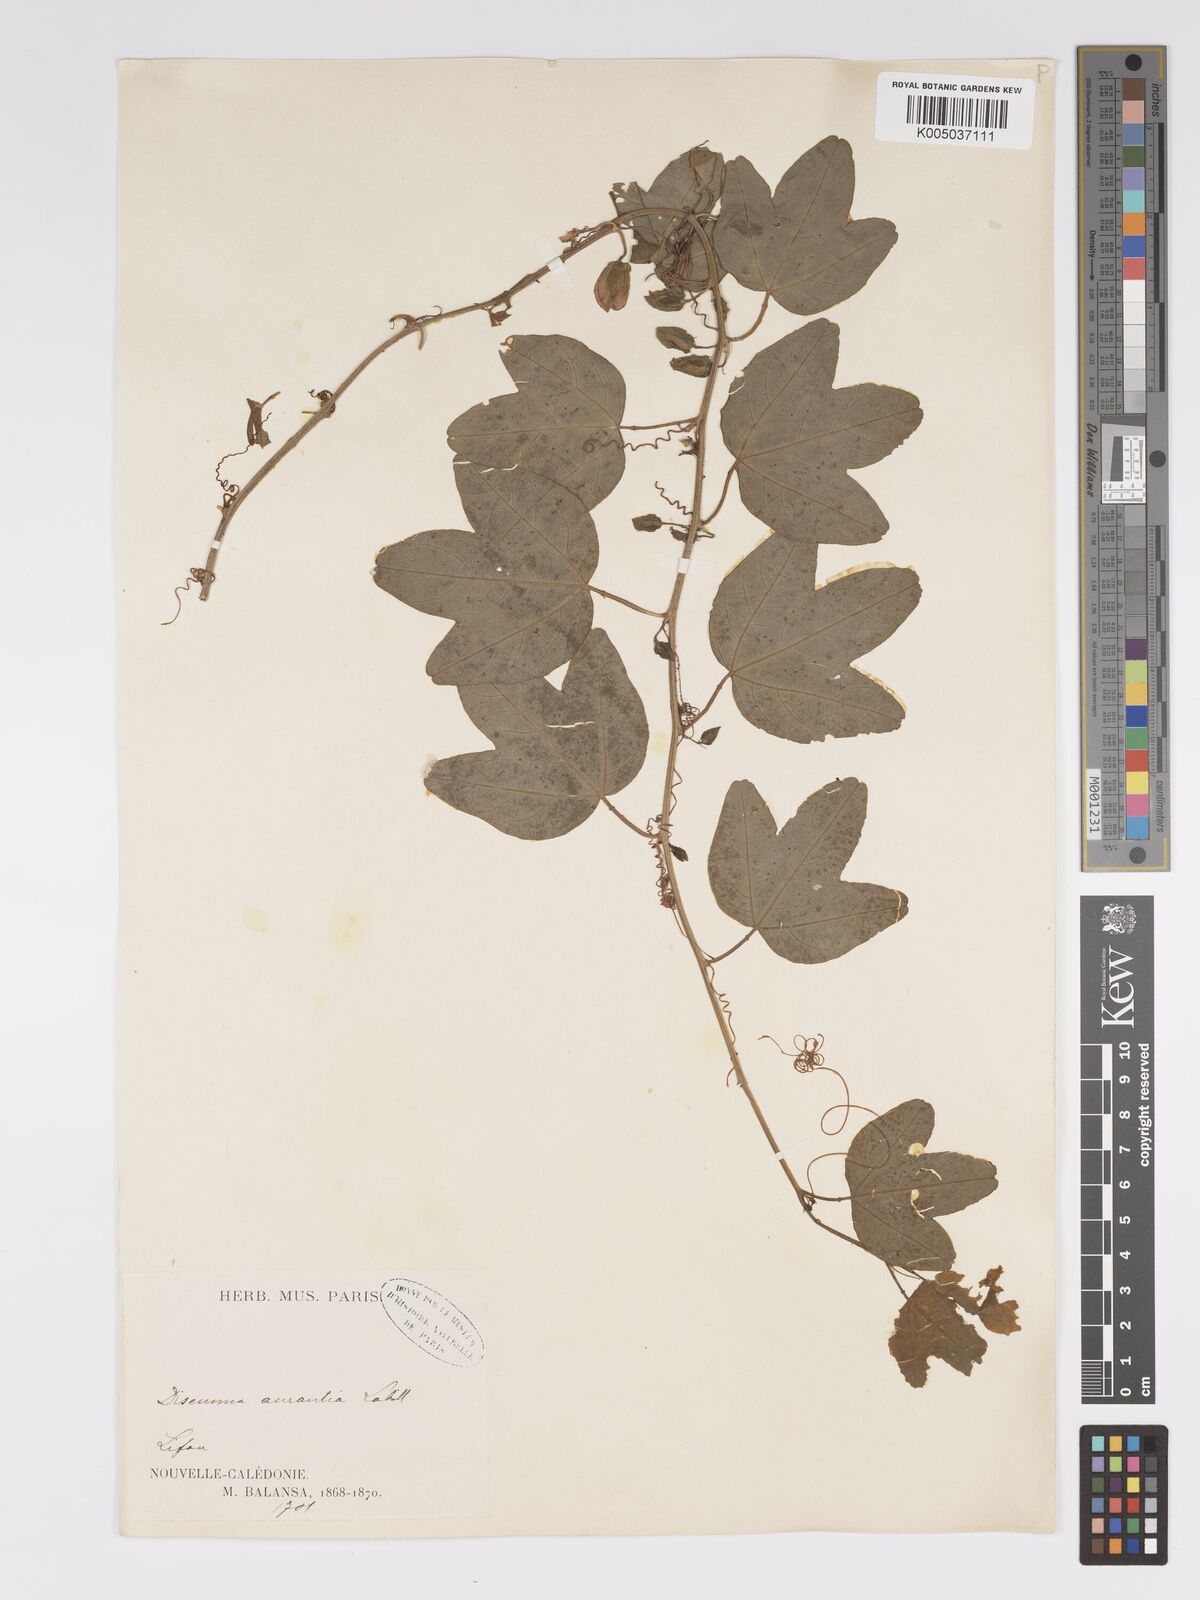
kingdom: Plantae
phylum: Tracheophyta
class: Magnoliopsida
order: Malpighiales
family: Passifloraceae
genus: Passiflora
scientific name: Passiflora aurantia
